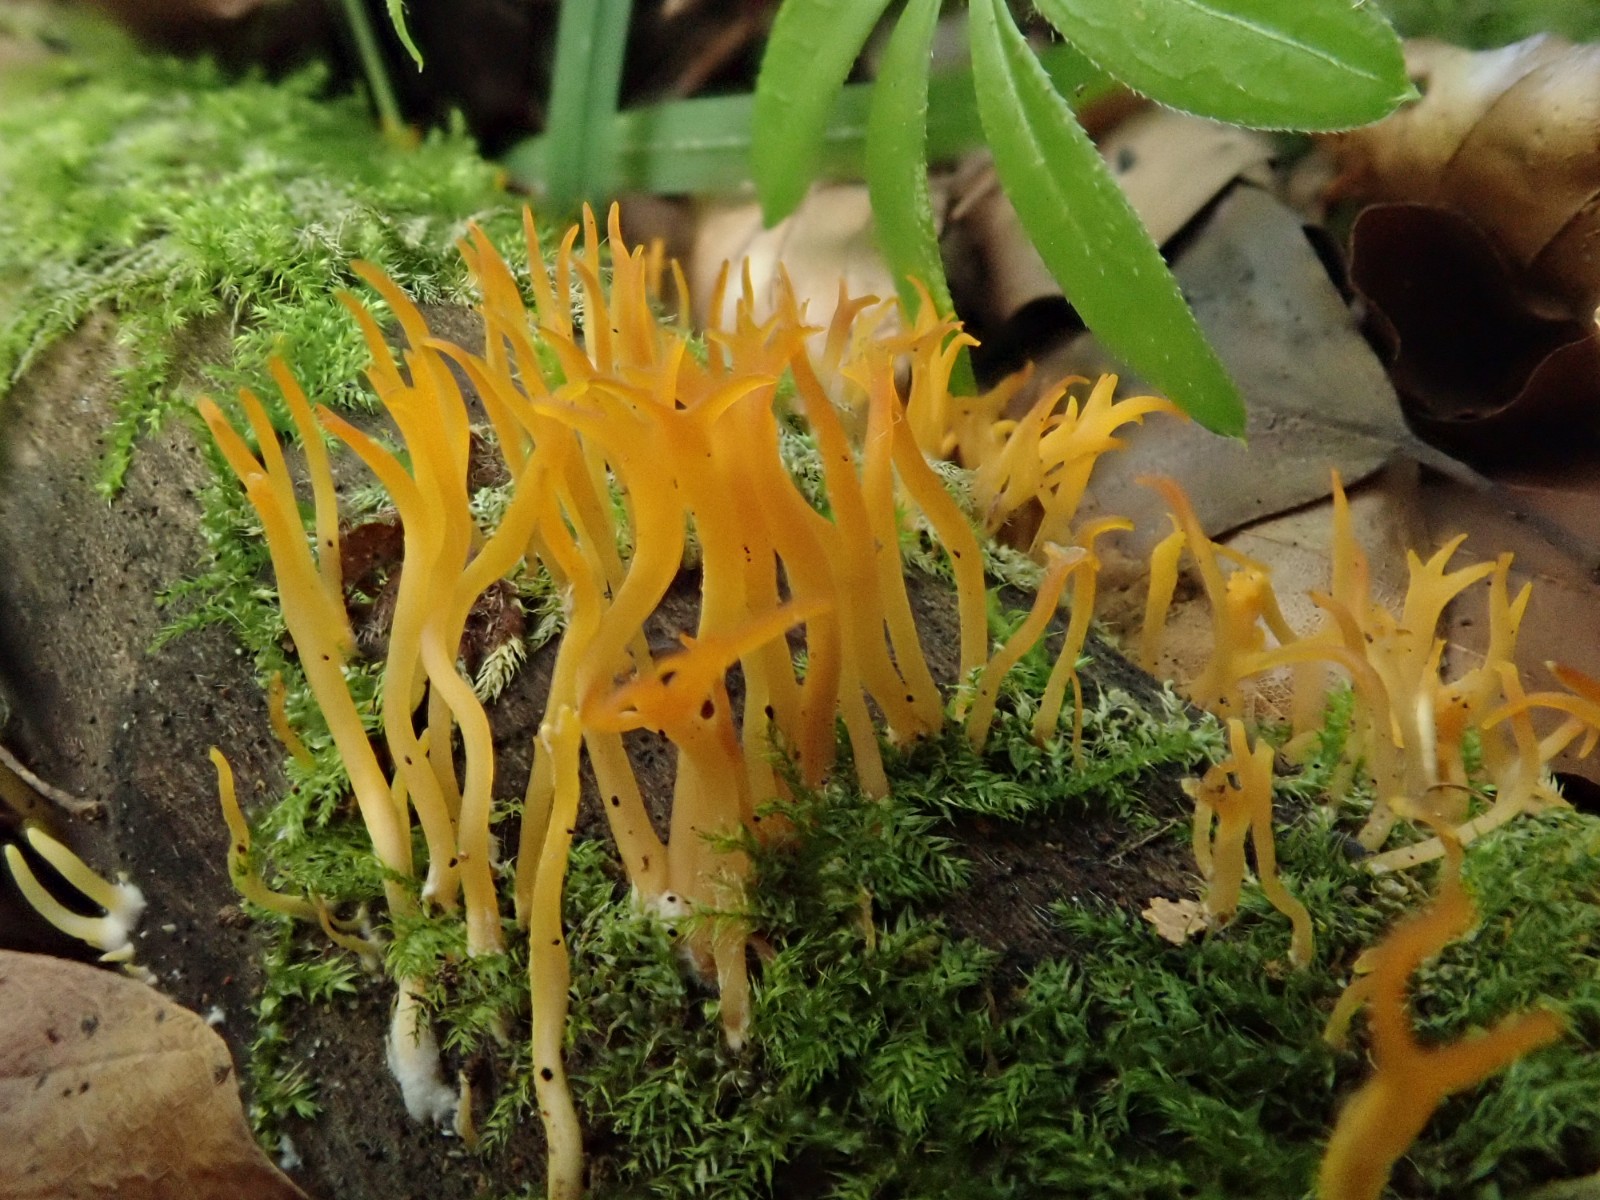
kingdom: Fungi
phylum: Basidiomycota
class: Dacrymycetes
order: Dacrymycetales
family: Dacrymycetaceae
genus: Calocera
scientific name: Calocera
